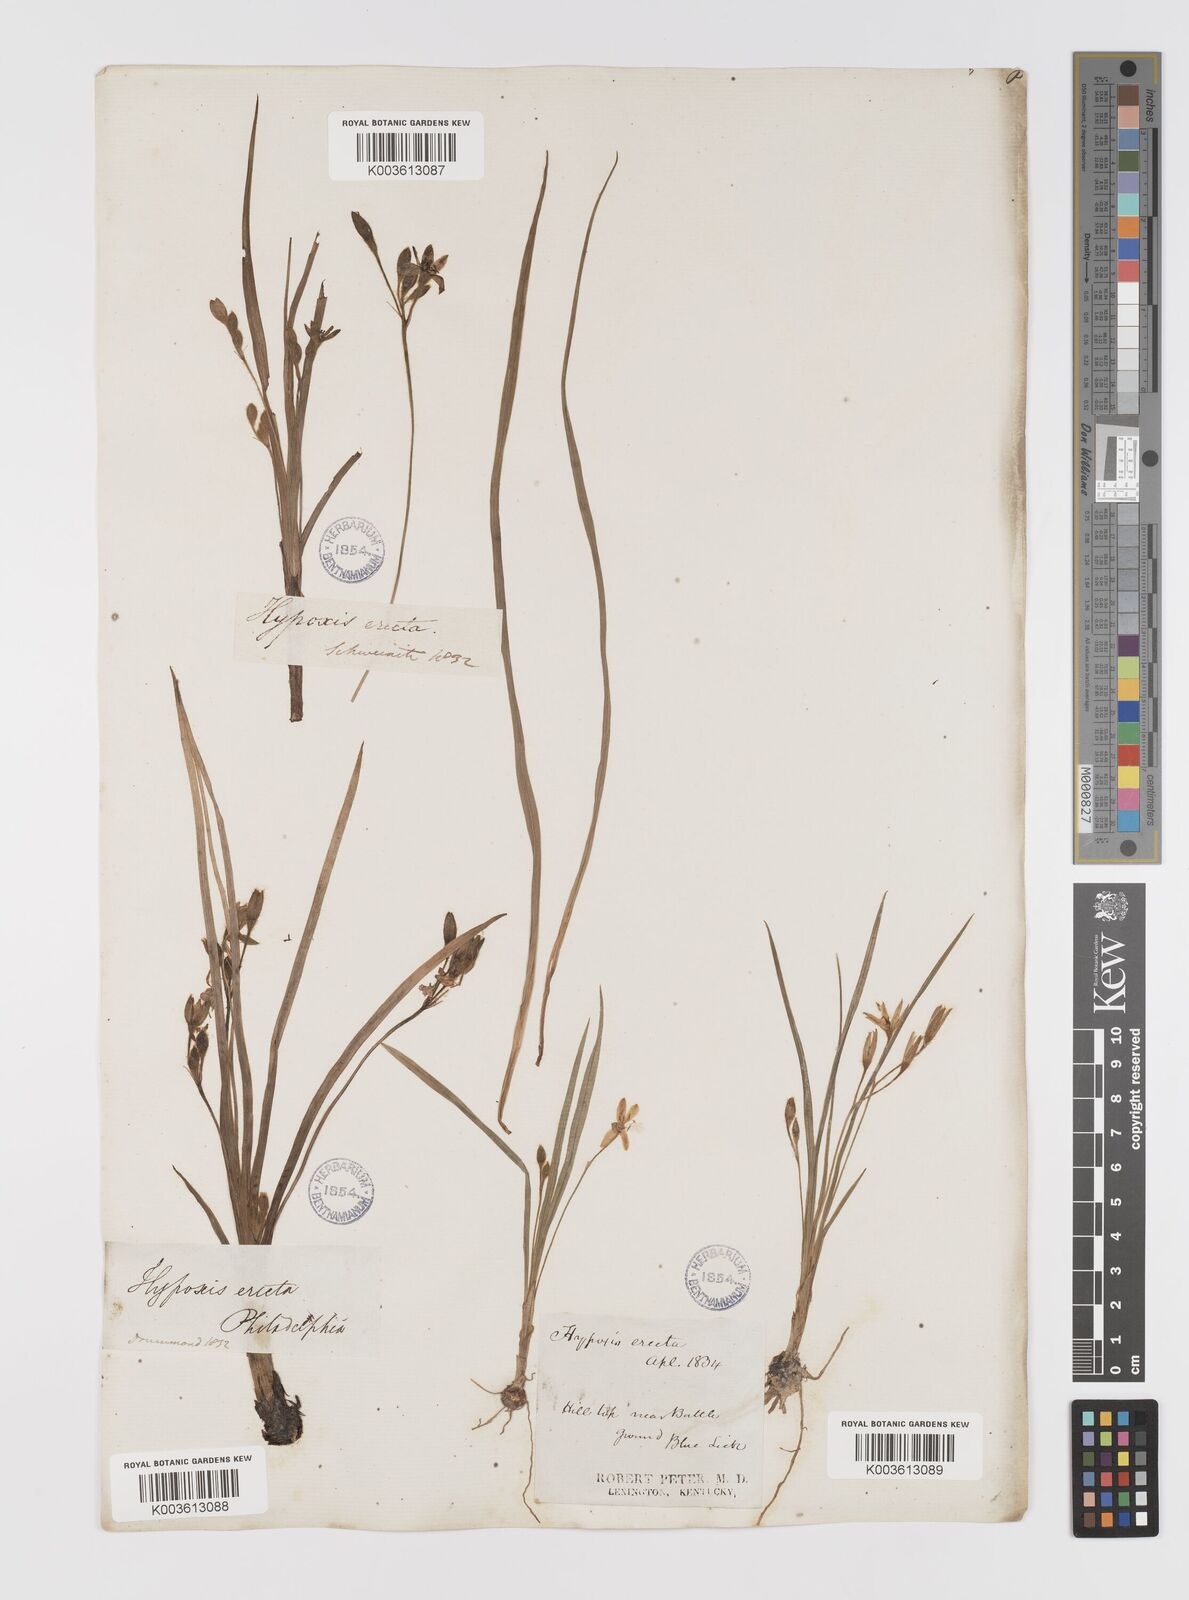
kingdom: Plantae
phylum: Tracheophyta
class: Liliopsida
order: Asparagales
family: Hypoxidaceae
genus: Hypoxis
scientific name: Hypoxis hirsuta
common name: Common goldstar
